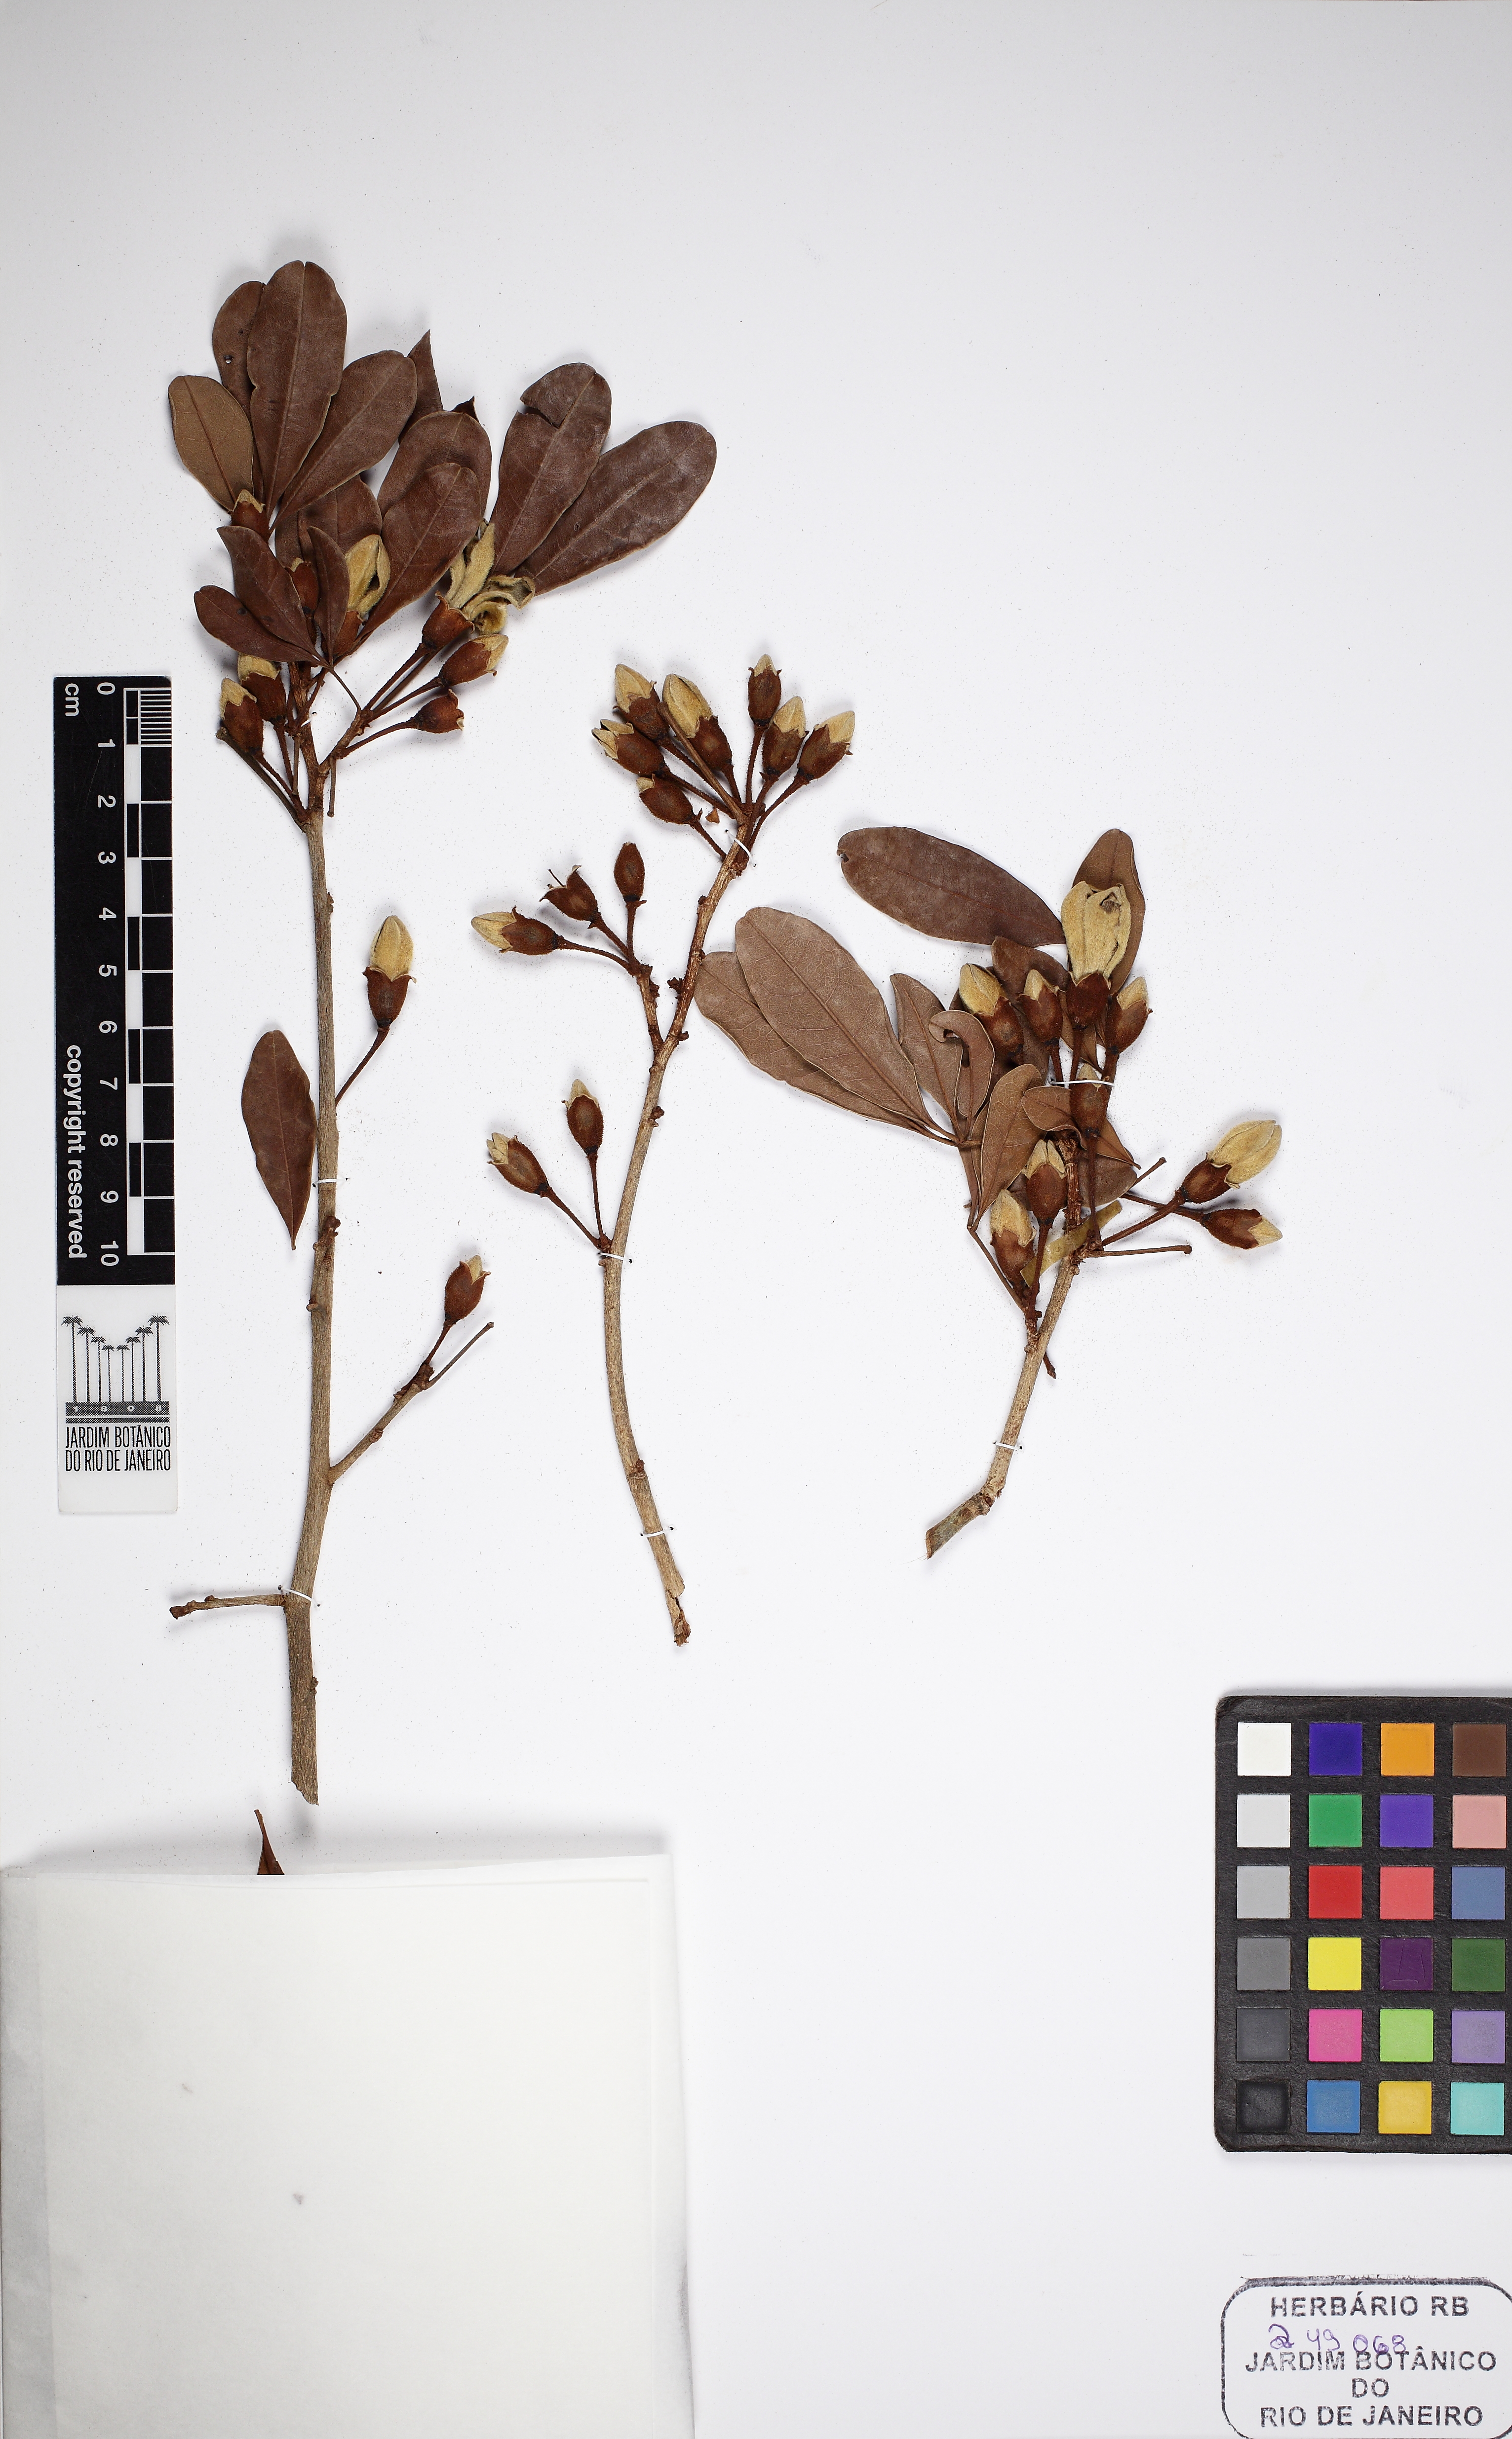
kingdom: Plantae
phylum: Tracheophyta
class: Magnoliopsida
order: Malvales
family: Malvaceae
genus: Eriotheca
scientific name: Eriotheca candolleana
